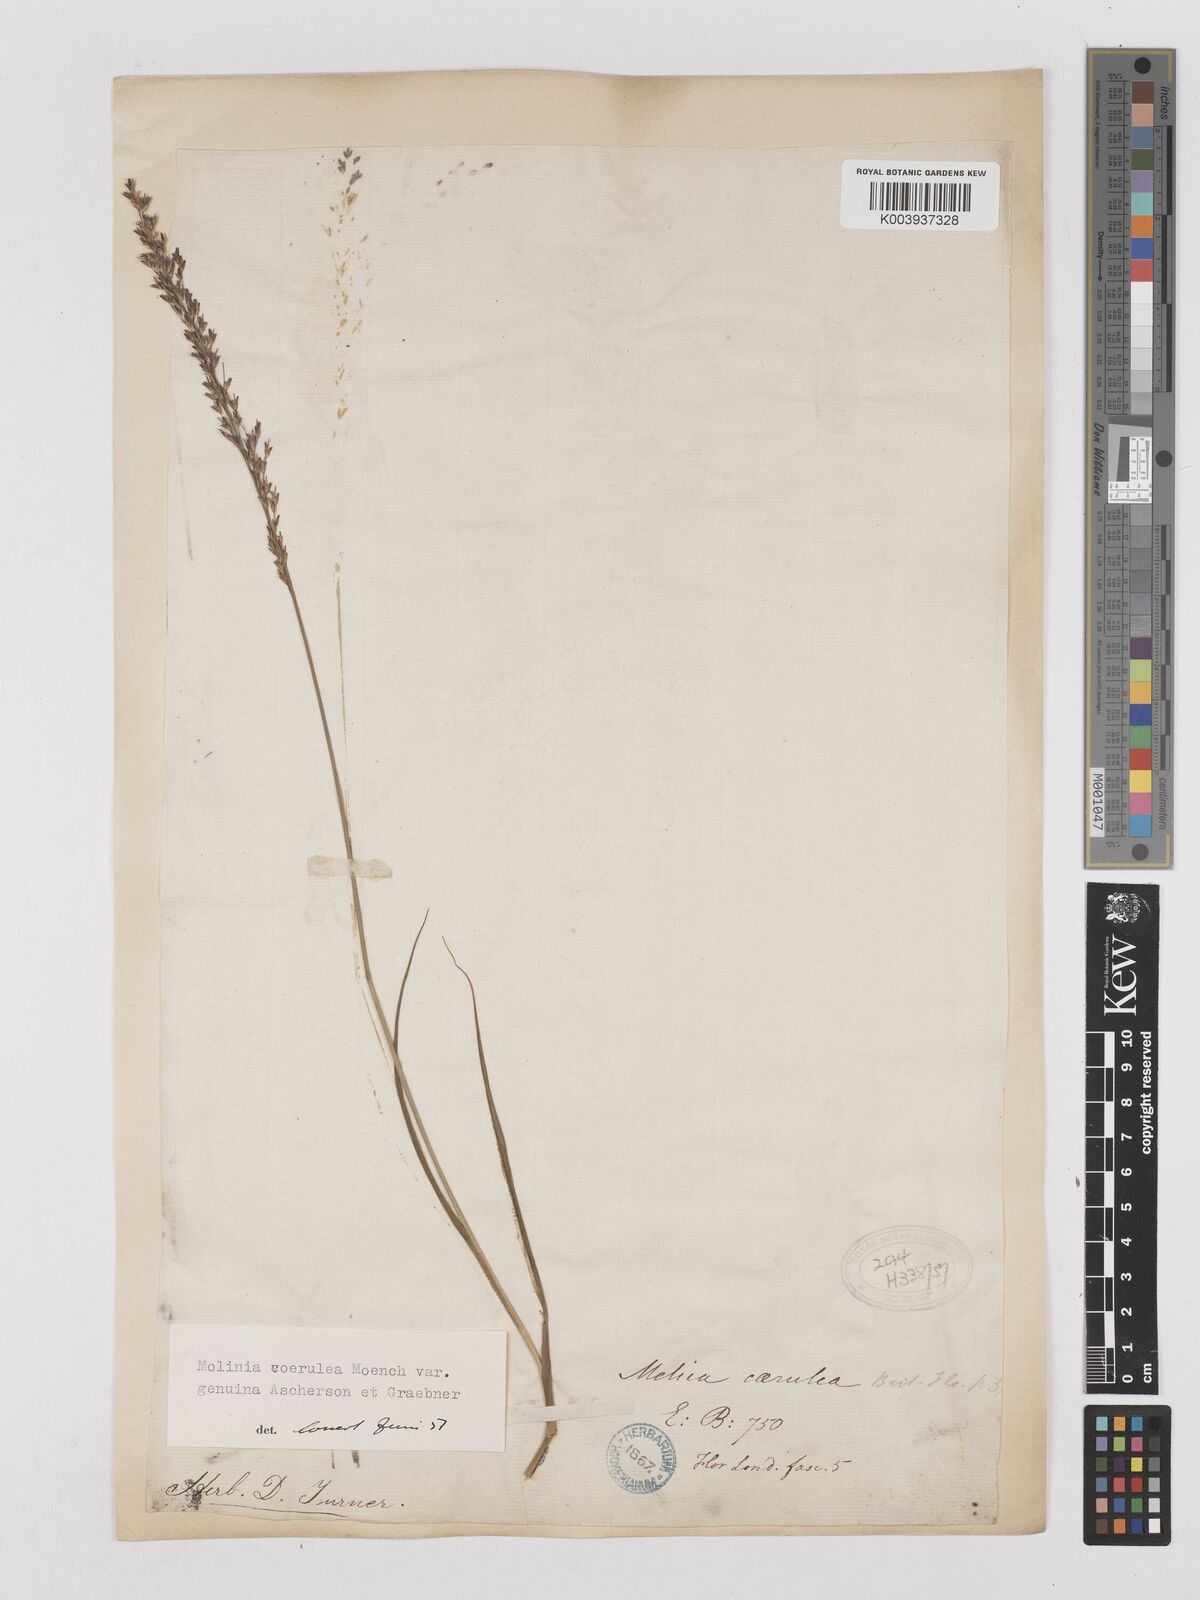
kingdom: Plantae
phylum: Tracheophyta
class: Liliopsida
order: Poales
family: Poaceae
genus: Molinia
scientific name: Molinia caerulea
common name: Purple moor-grass
